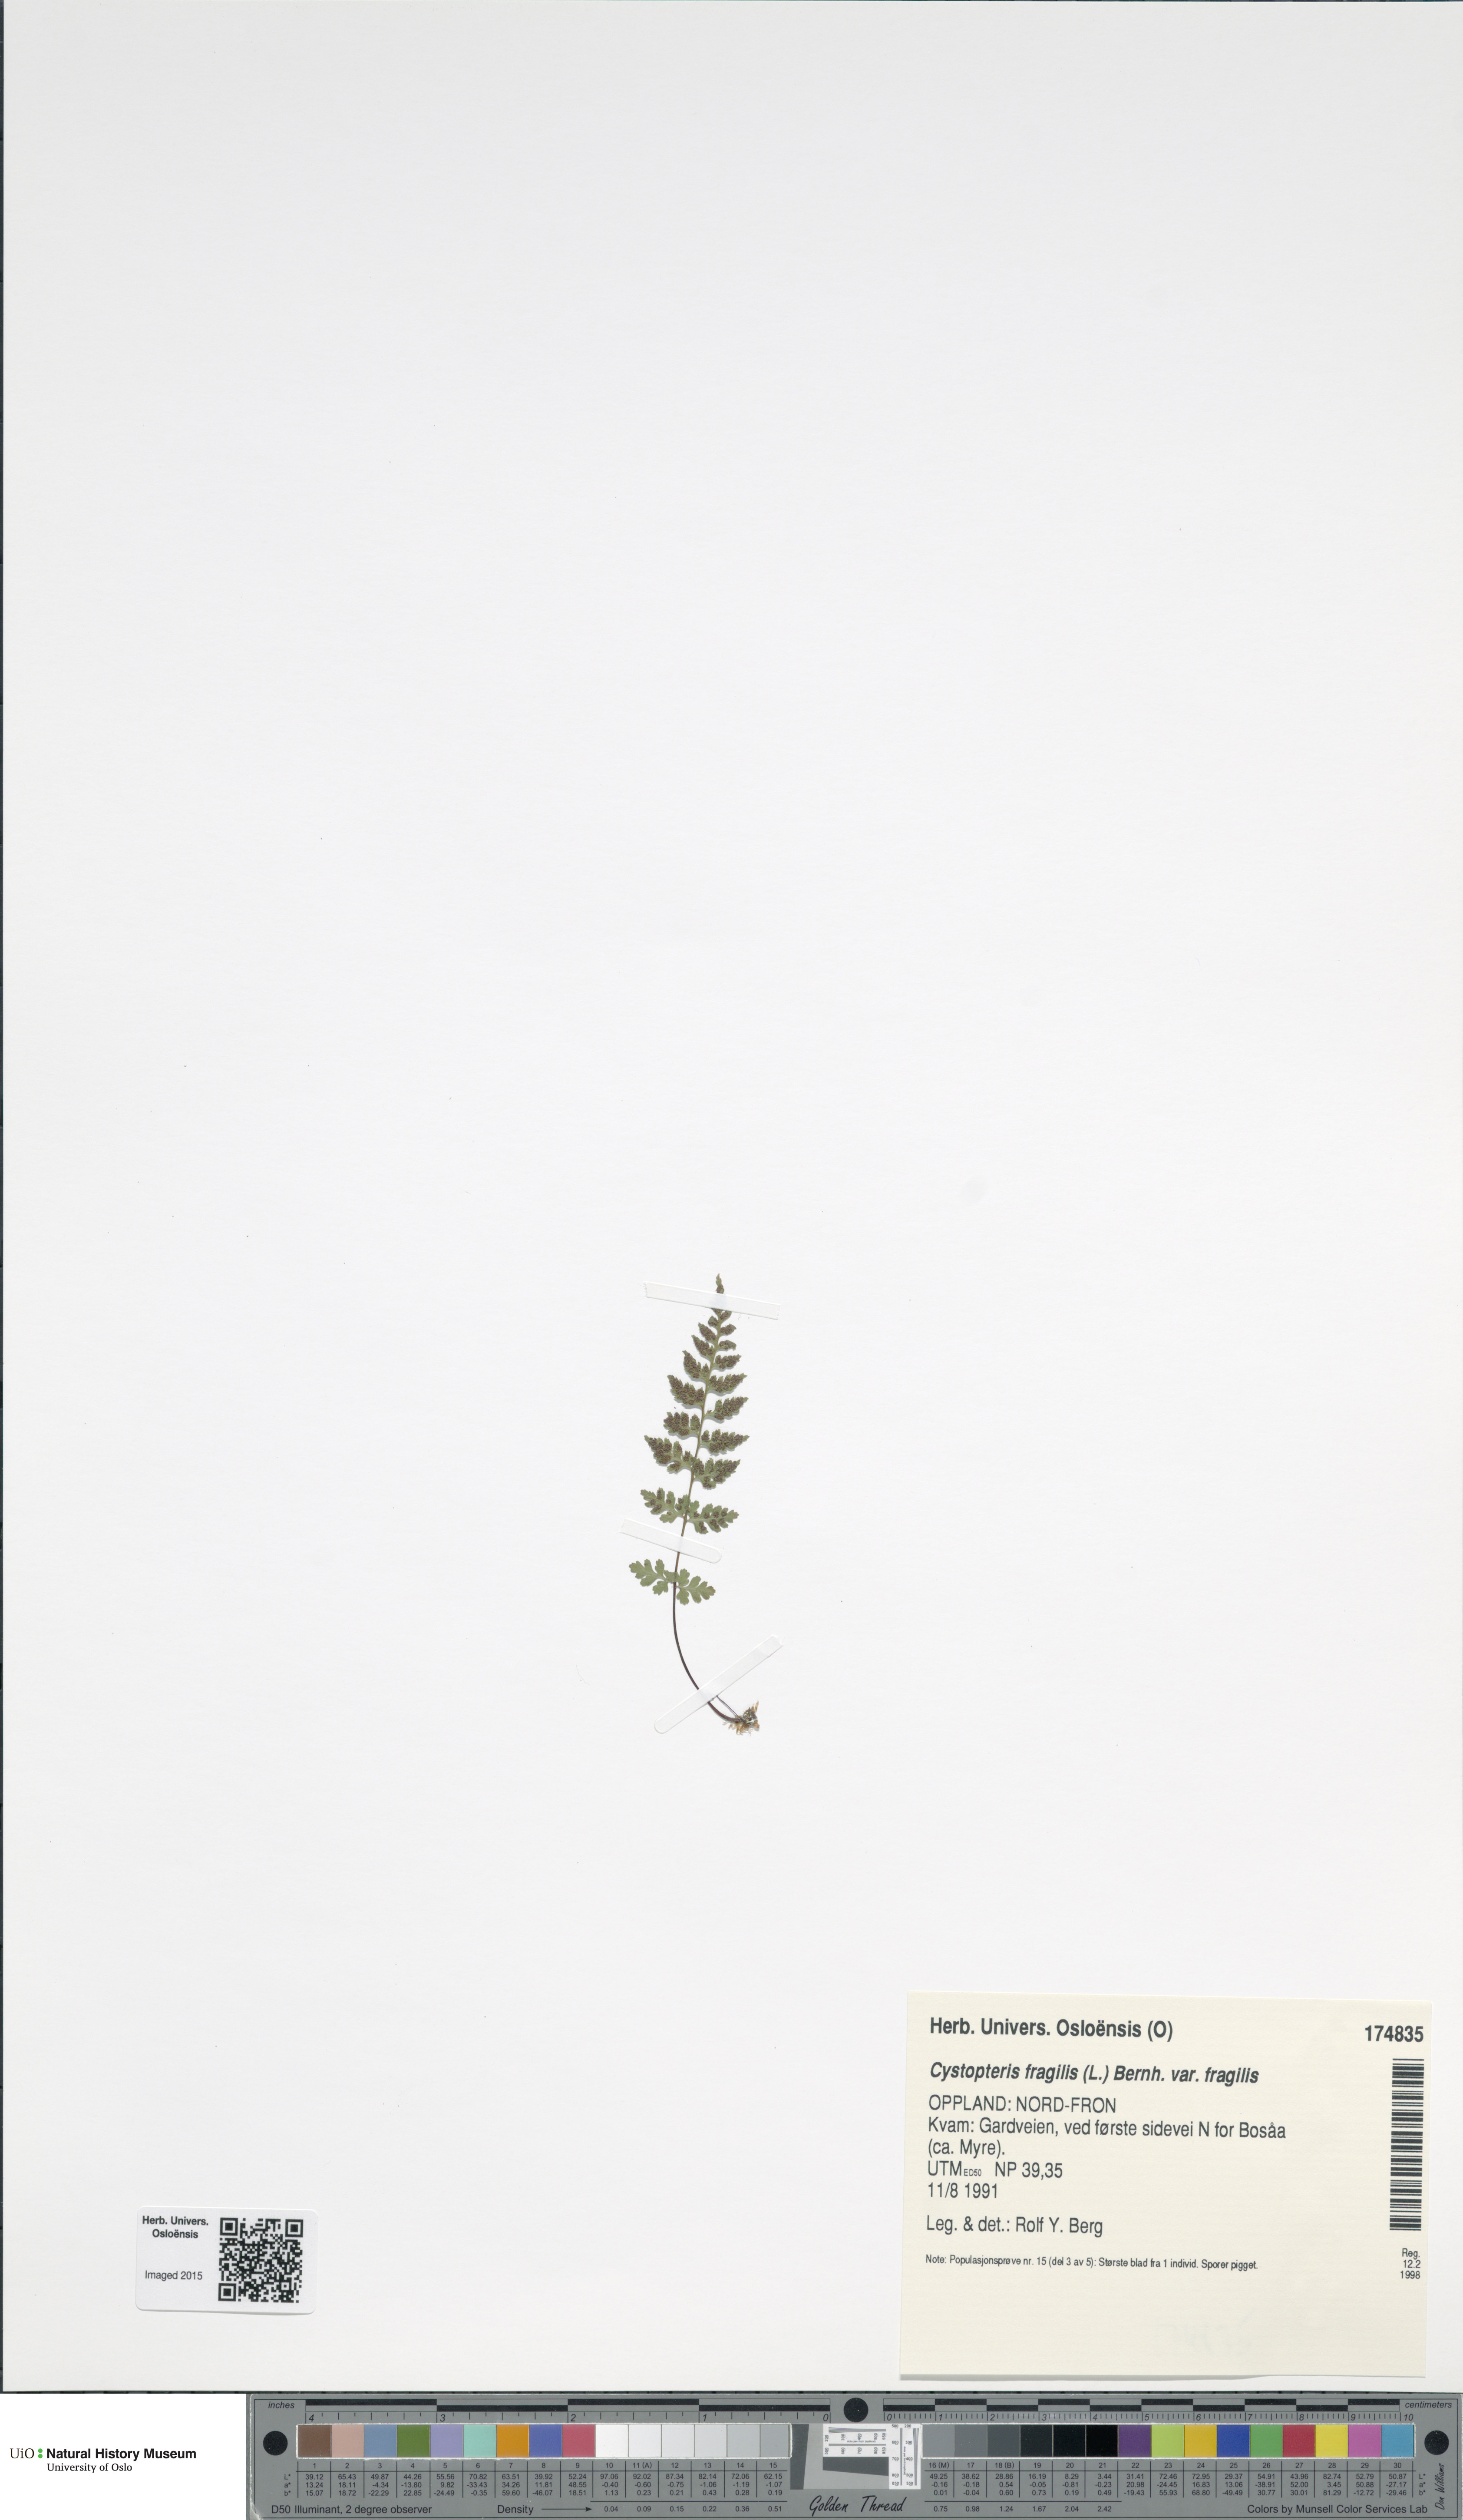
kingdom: Plantae
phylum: Tracheophyta
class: Polypodiopsida
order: Polypodiales
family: Cystopteridaceae
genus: Cystopteris
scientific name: Cystopteris fragilis
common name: Brittle bladder fern
